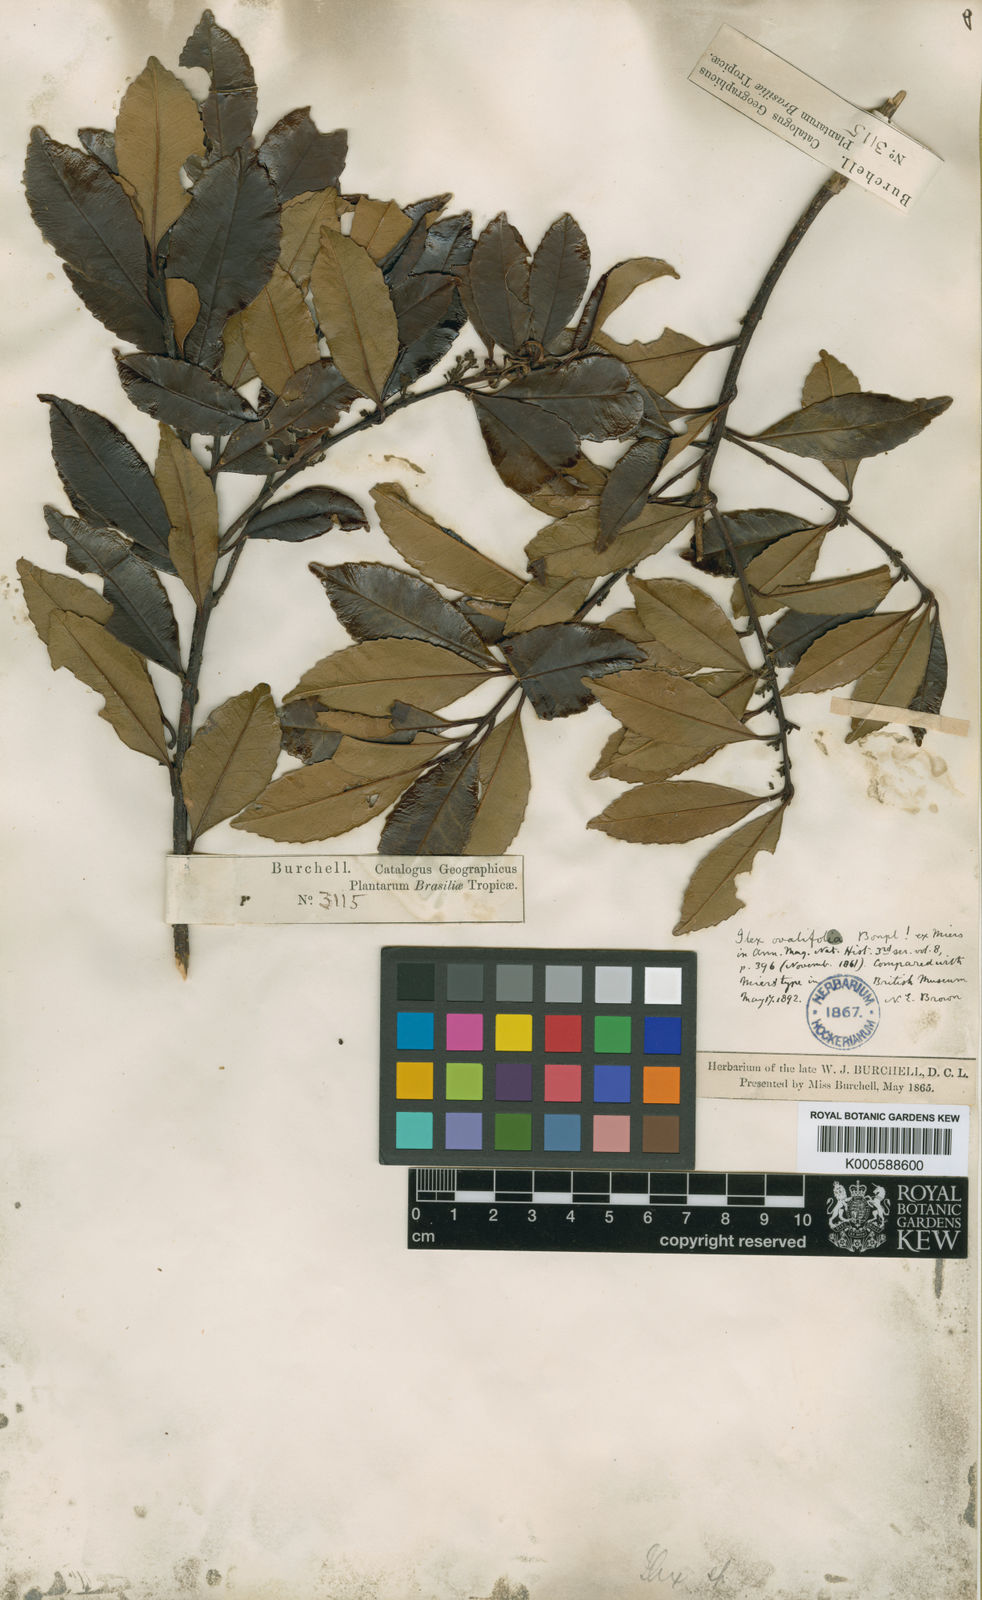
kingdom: Plantae
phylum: Tracheophyta
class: Magnoliopsida
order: Aquifoliales
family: Aquifoliaceae
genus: Ilex
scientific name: Ilex dumosa
